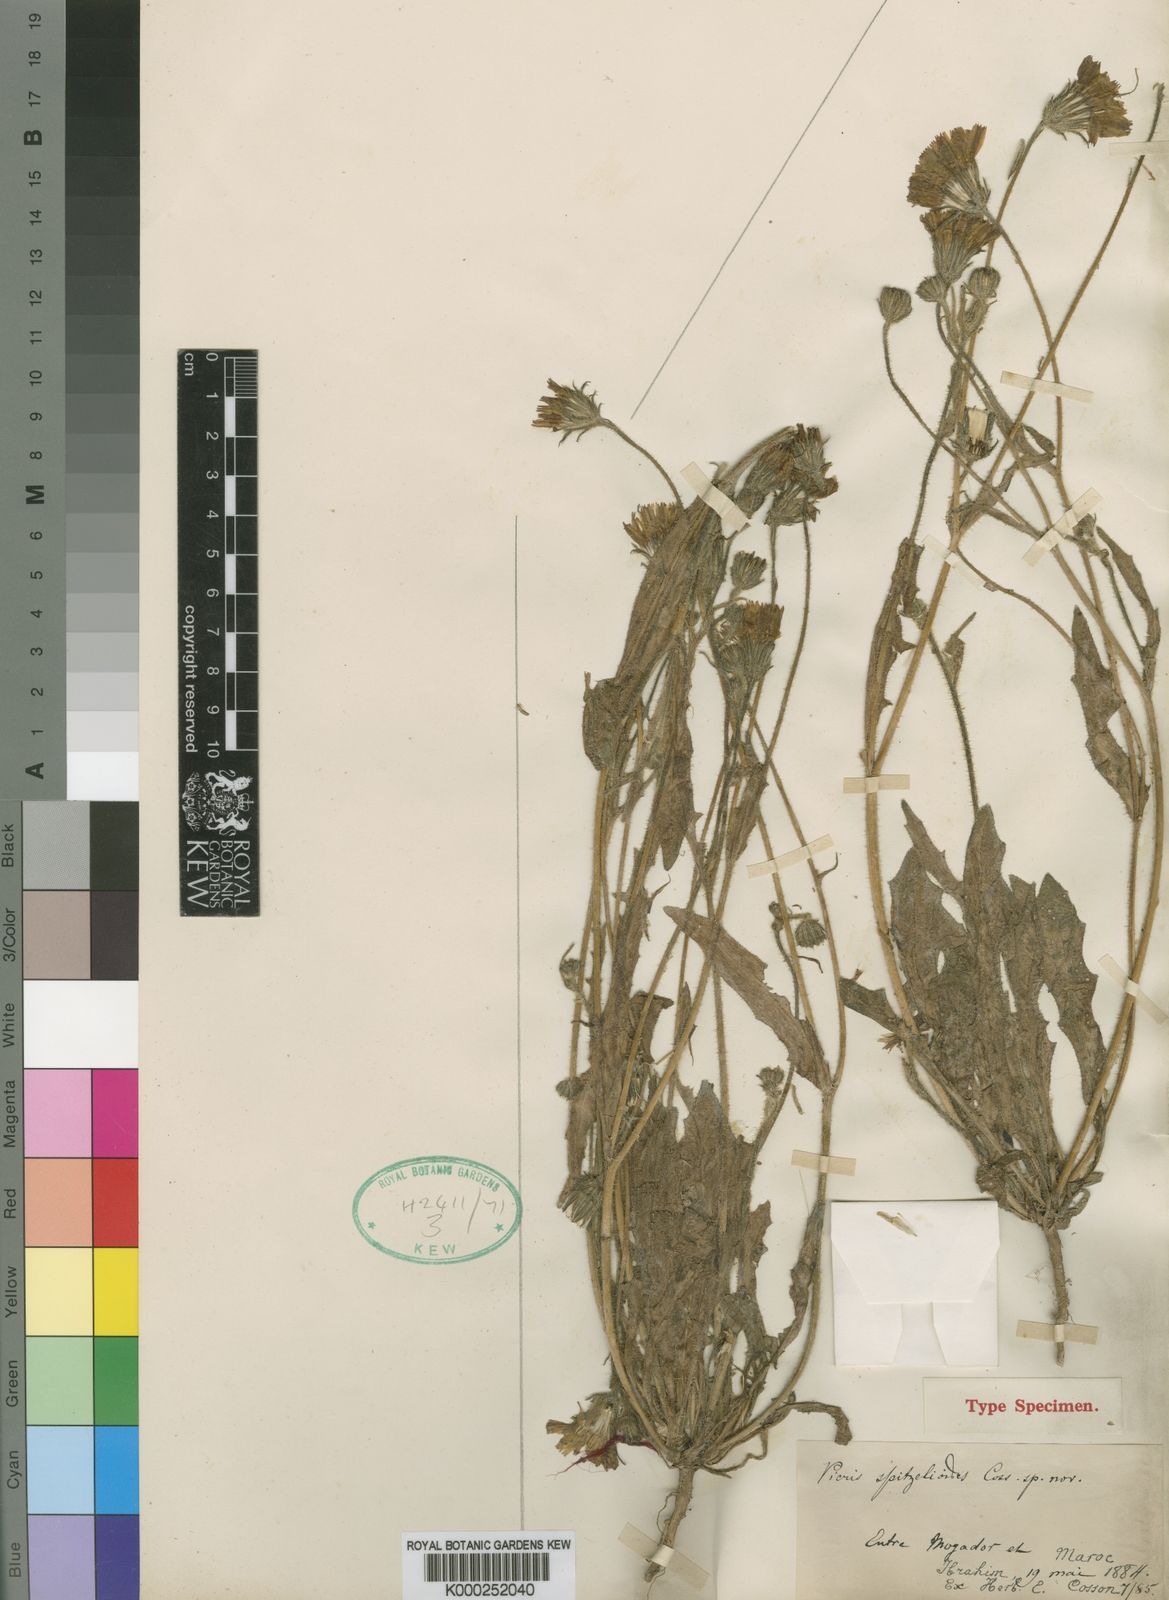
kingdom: Plantae
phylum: Tracheophyta
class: Magnoliopsida
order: Asterales
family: Asteraceae
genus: Picris
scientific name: Picris albida
